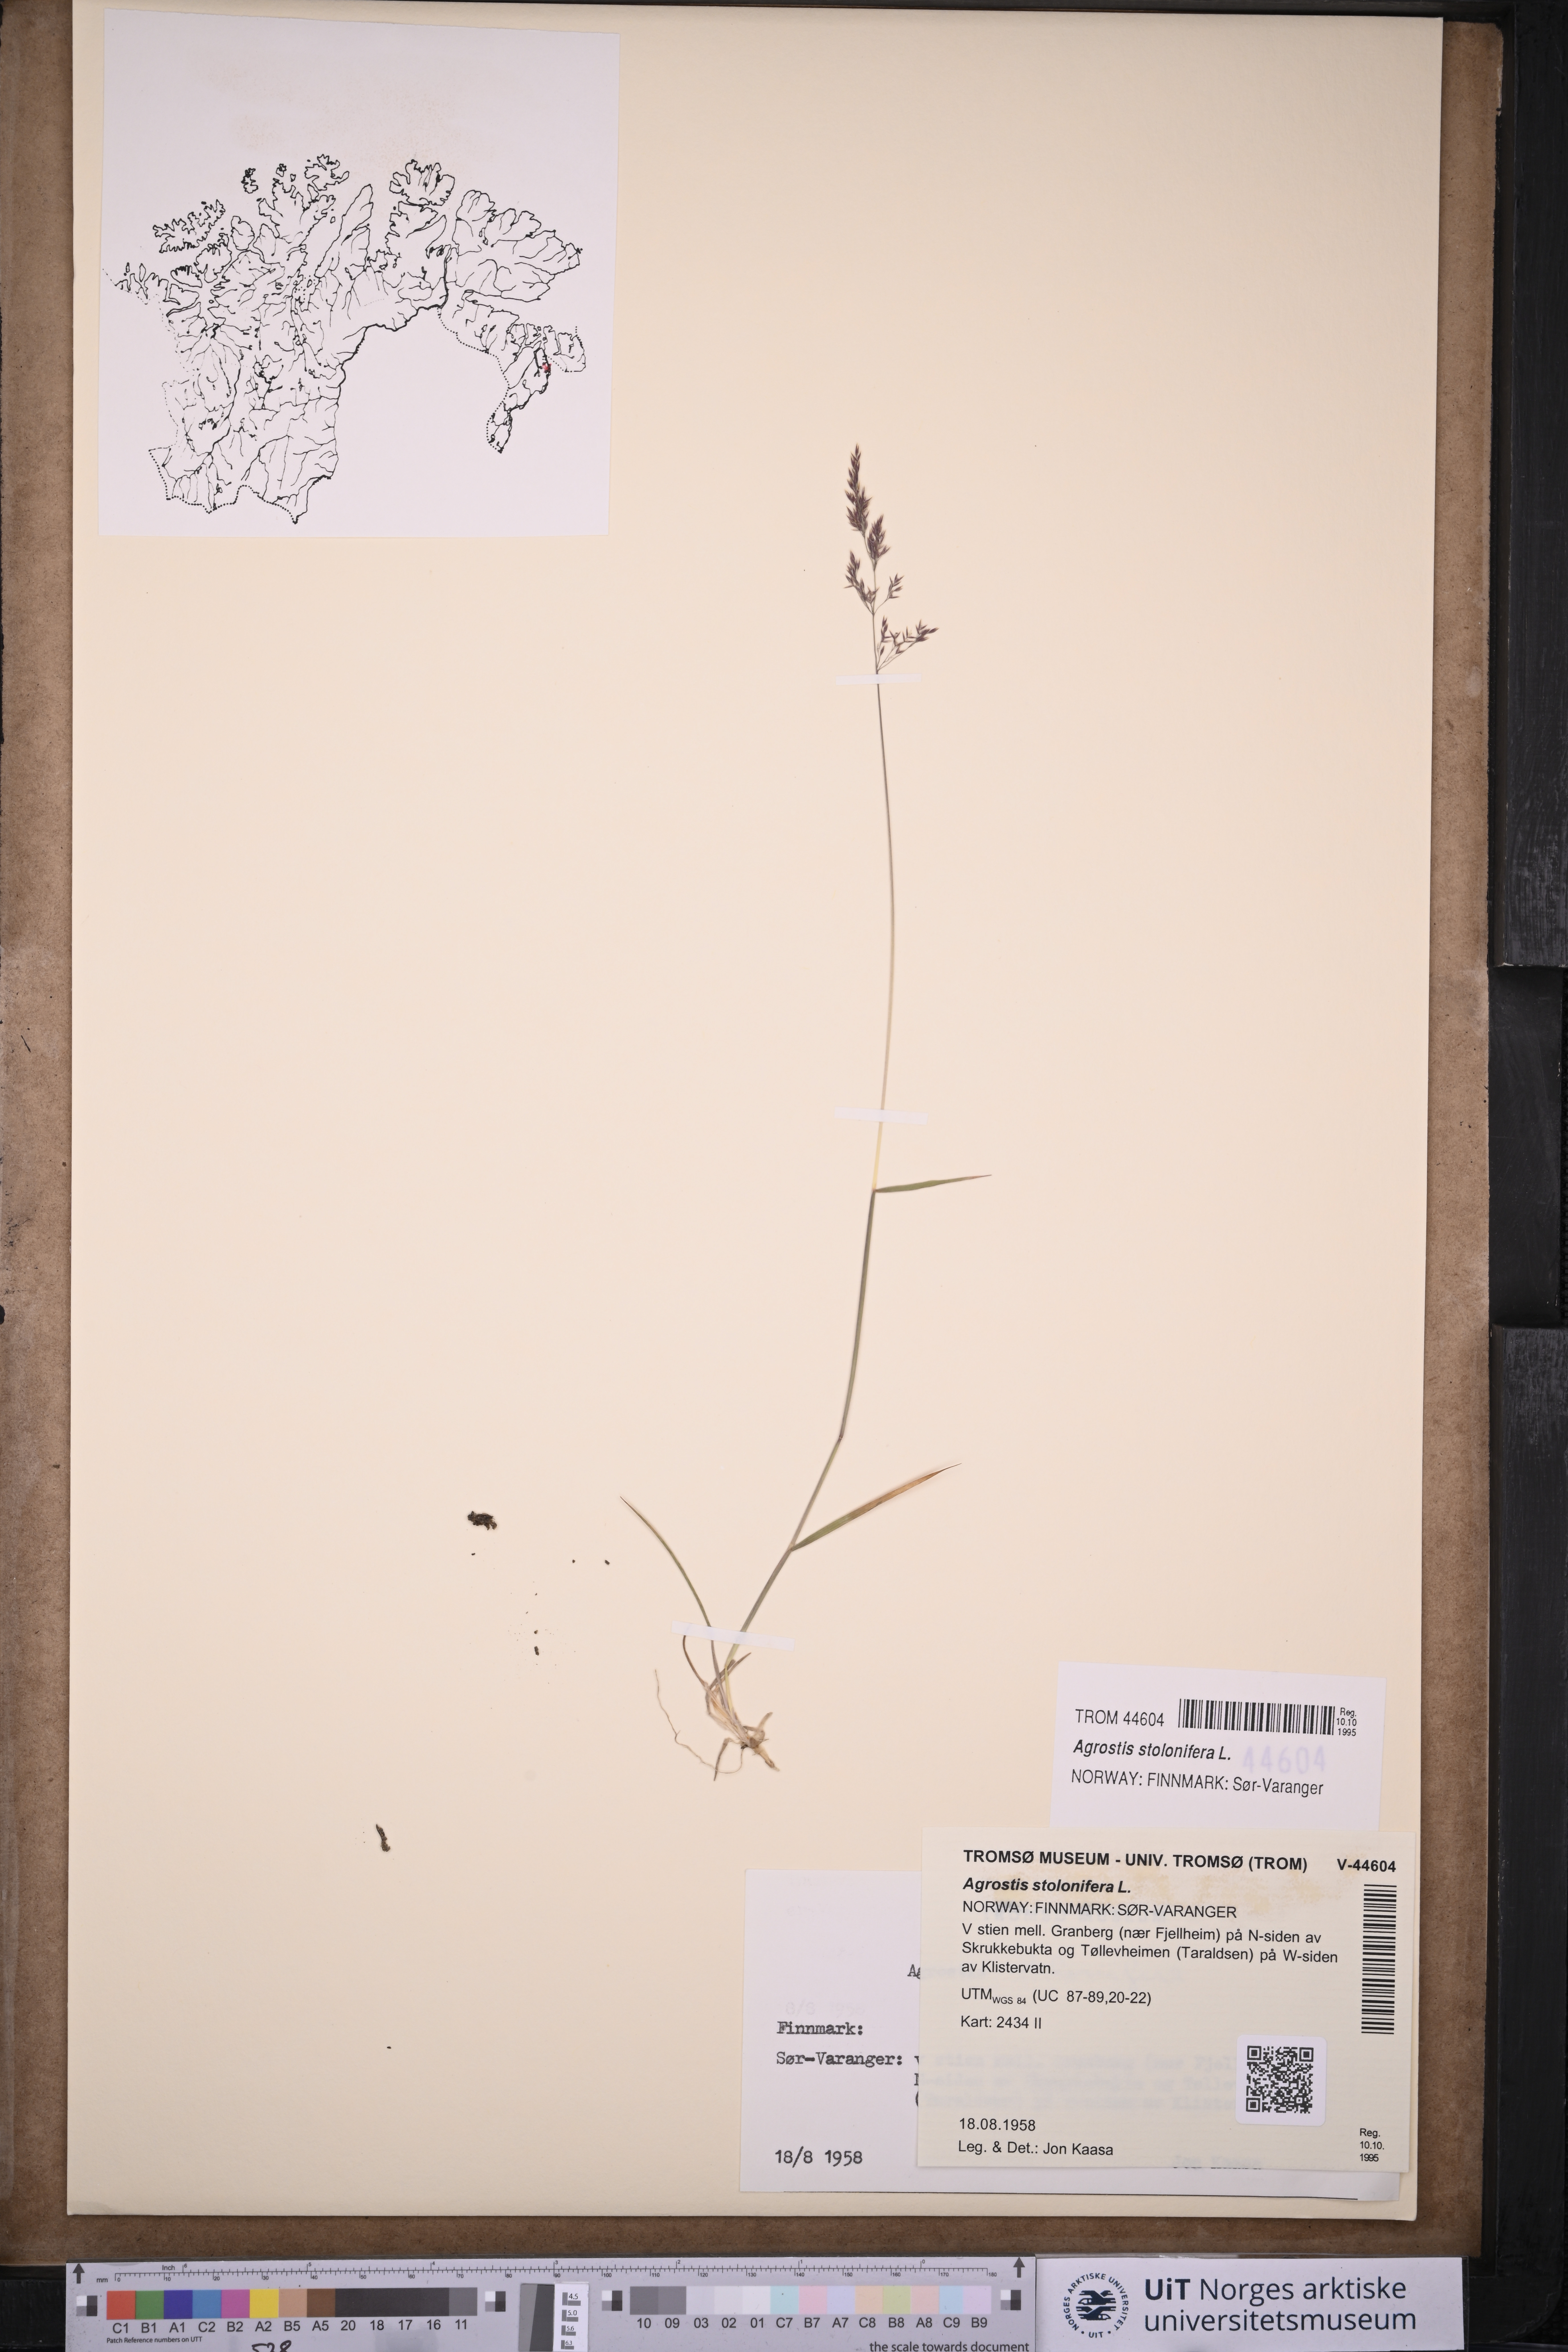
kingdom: Plantae
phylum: Tracheophyta
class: Liliopsida
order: Poales
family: Poaceae
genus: Agrostis
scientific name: Agrostis stolonifera
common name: Creeping bentgrass
